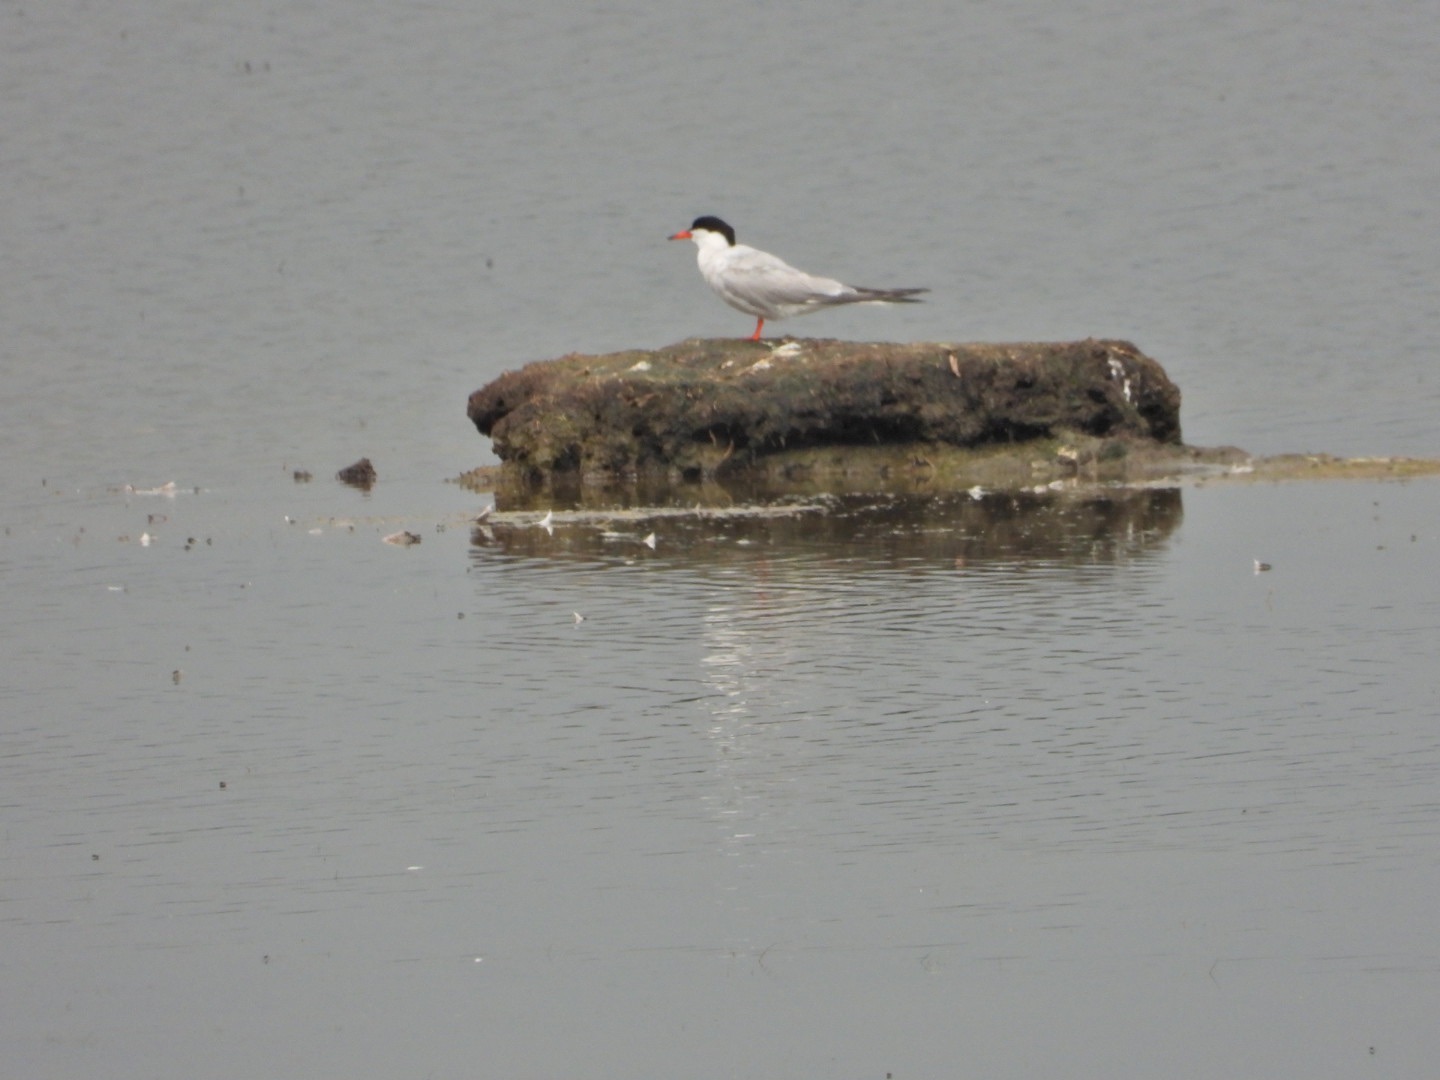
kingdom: Animalia
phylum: Chordata
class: Aves
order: Charadriiformes
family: Laridae
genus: Sterna
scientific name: Sterna hirundo
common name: Fjordterne
